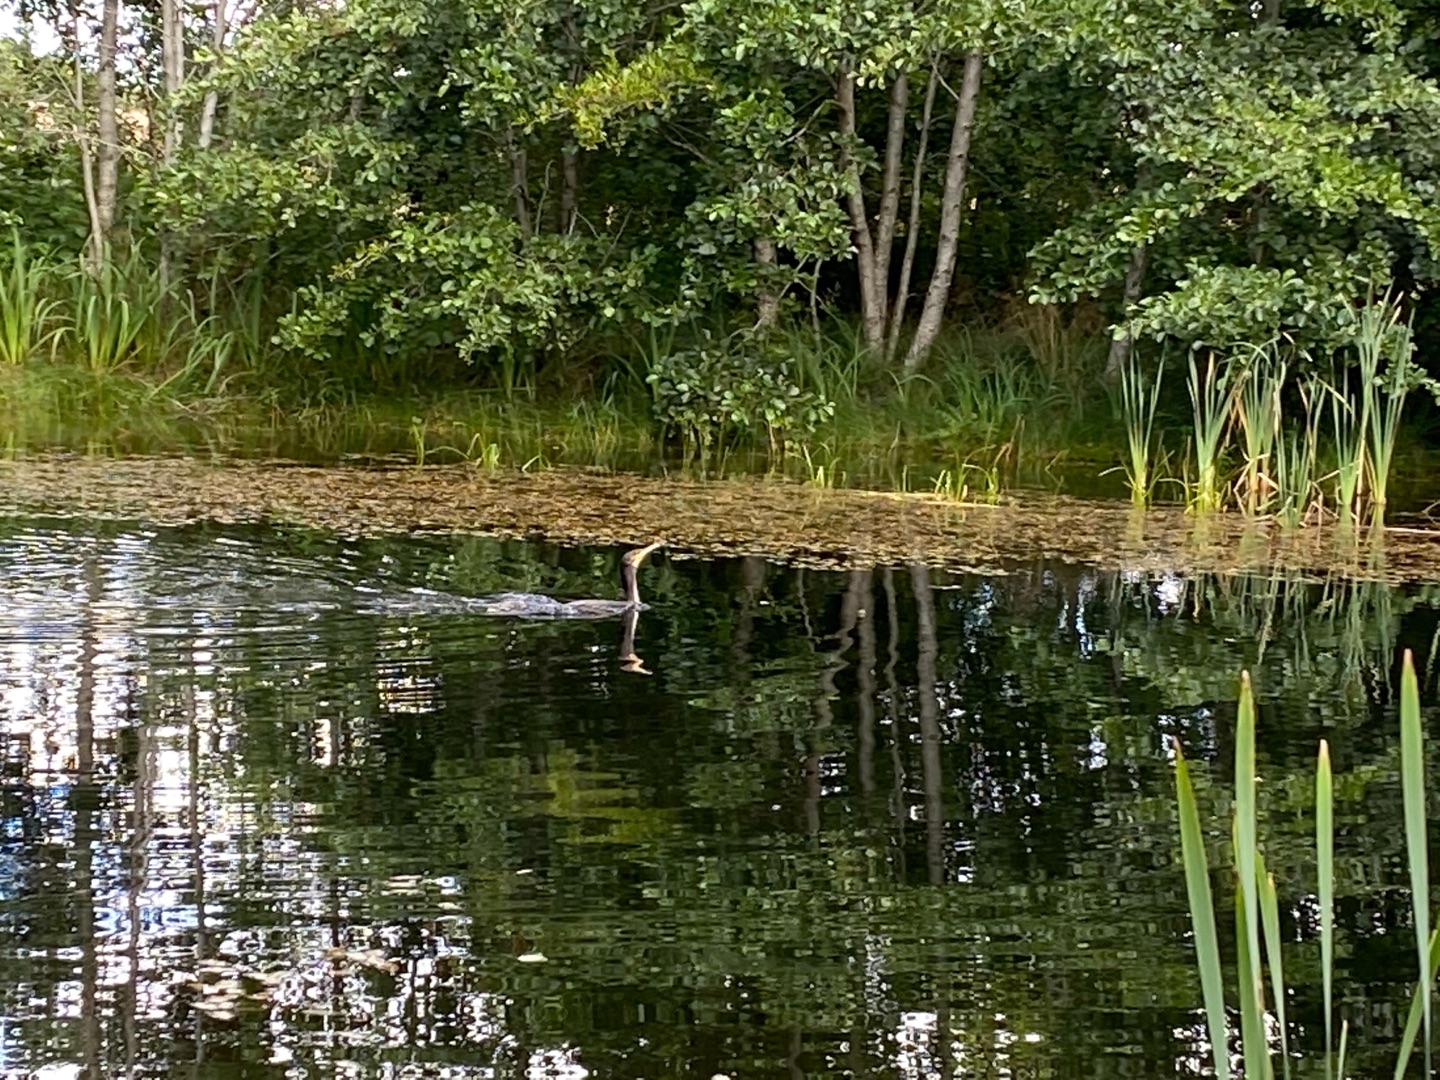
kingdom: Animalia
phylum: Chordata
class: Aves
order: Suliformes
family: Phalacrocoracidae
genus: Phalacrocorax
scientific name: Phalacrocorax carbo
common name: Skarv
